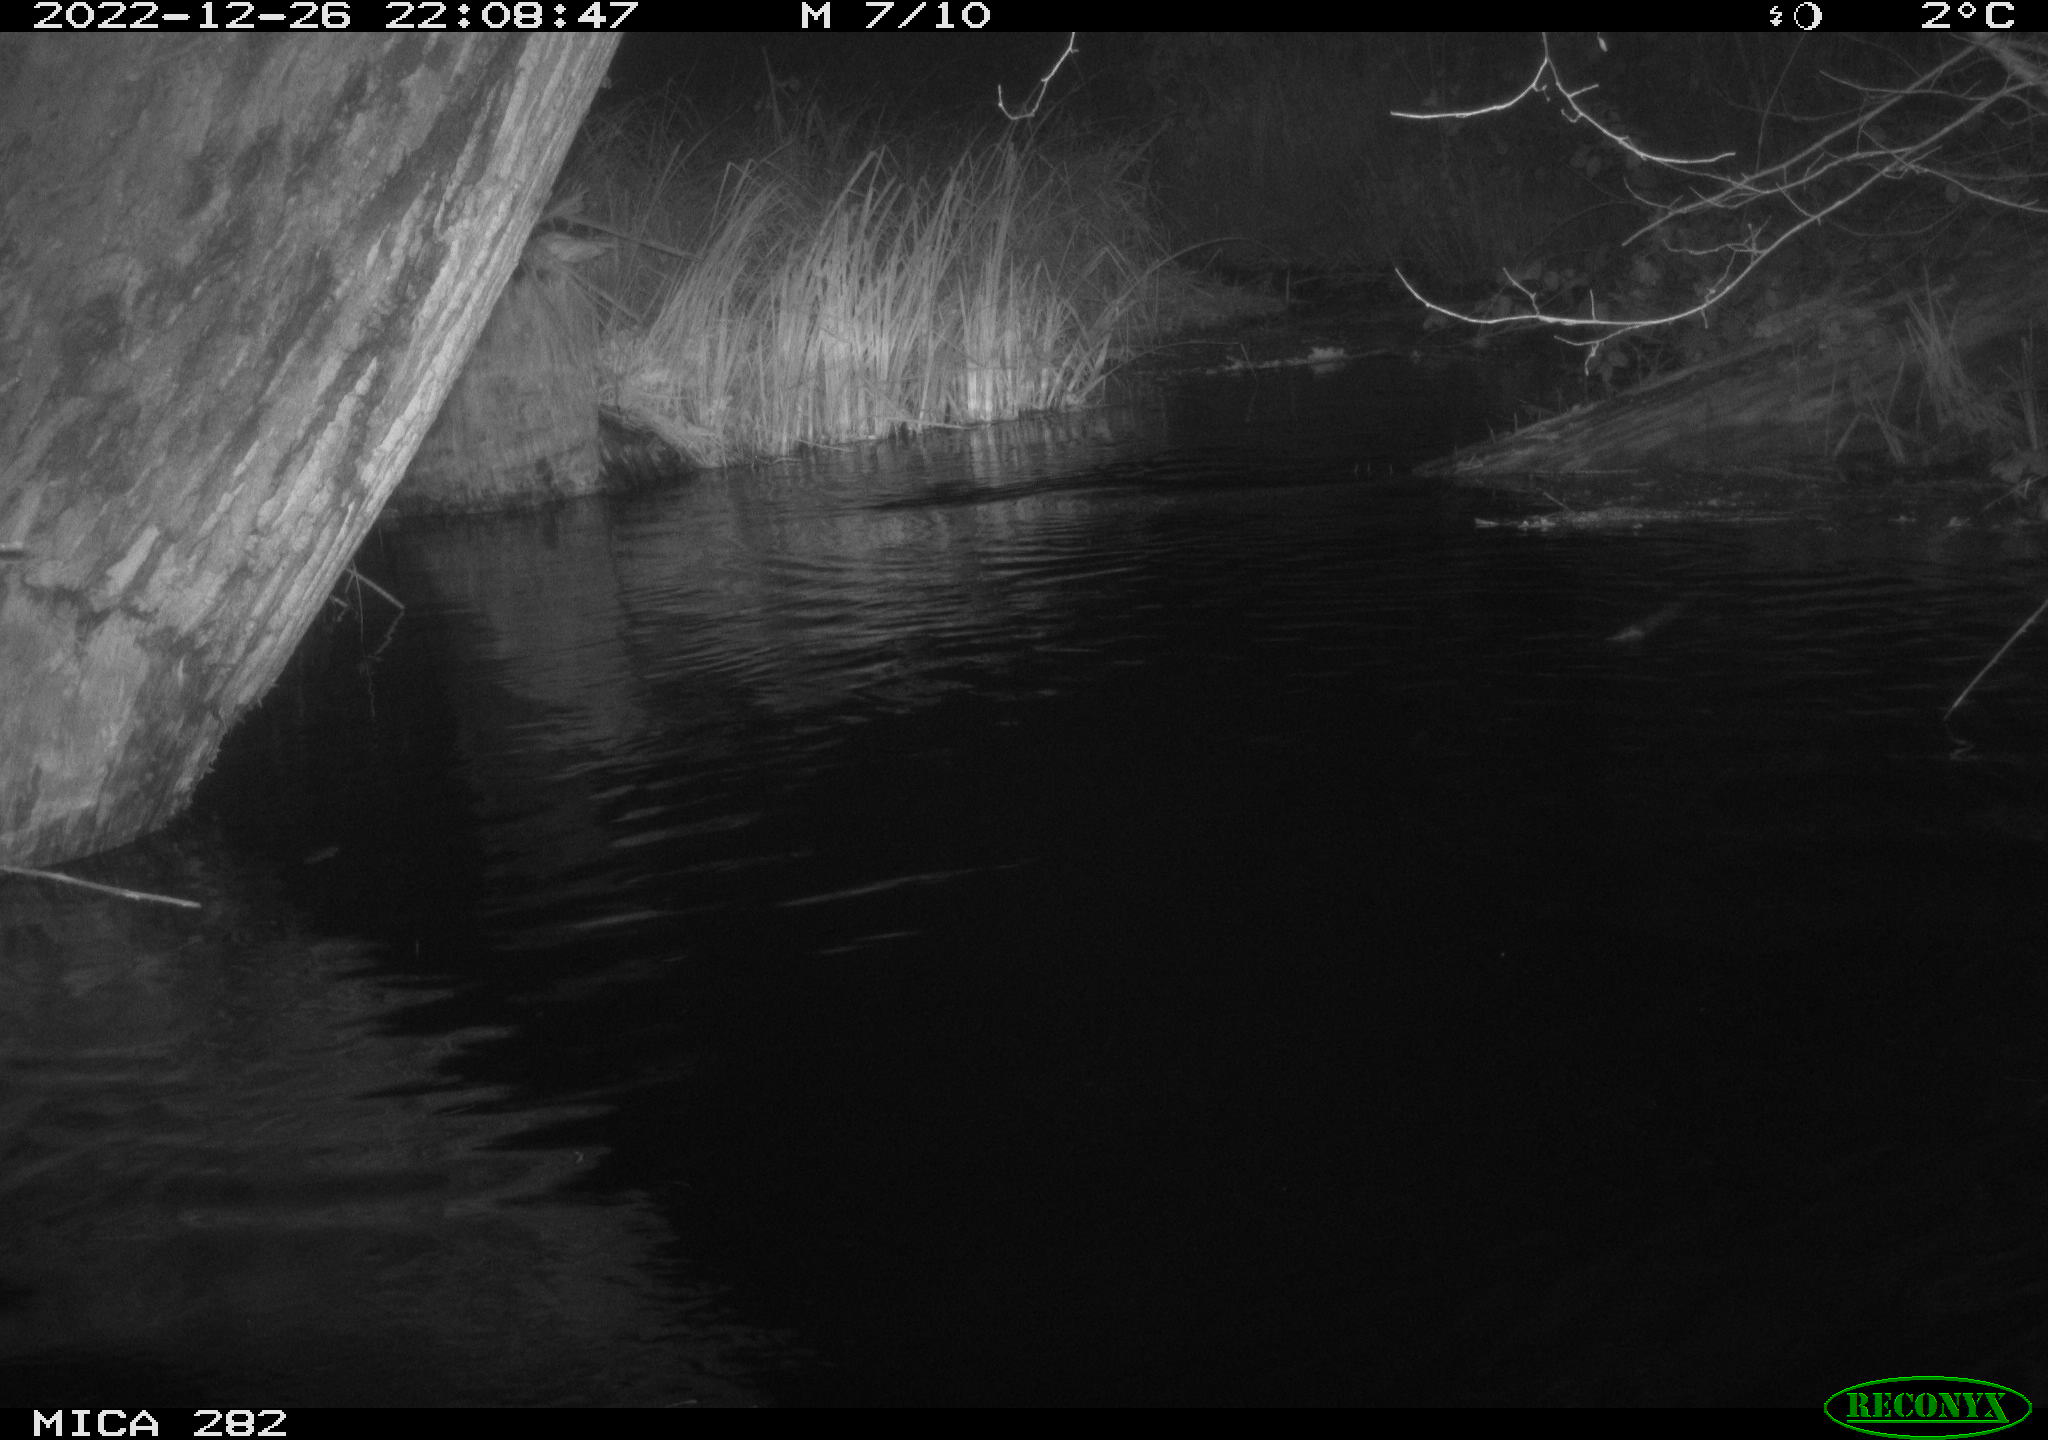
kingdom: Animalia
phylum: Chordata
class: Mammalia
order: Rodentia
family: Castoridae
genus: Castor
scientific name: Castor fiber
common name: Eurasian beaver
